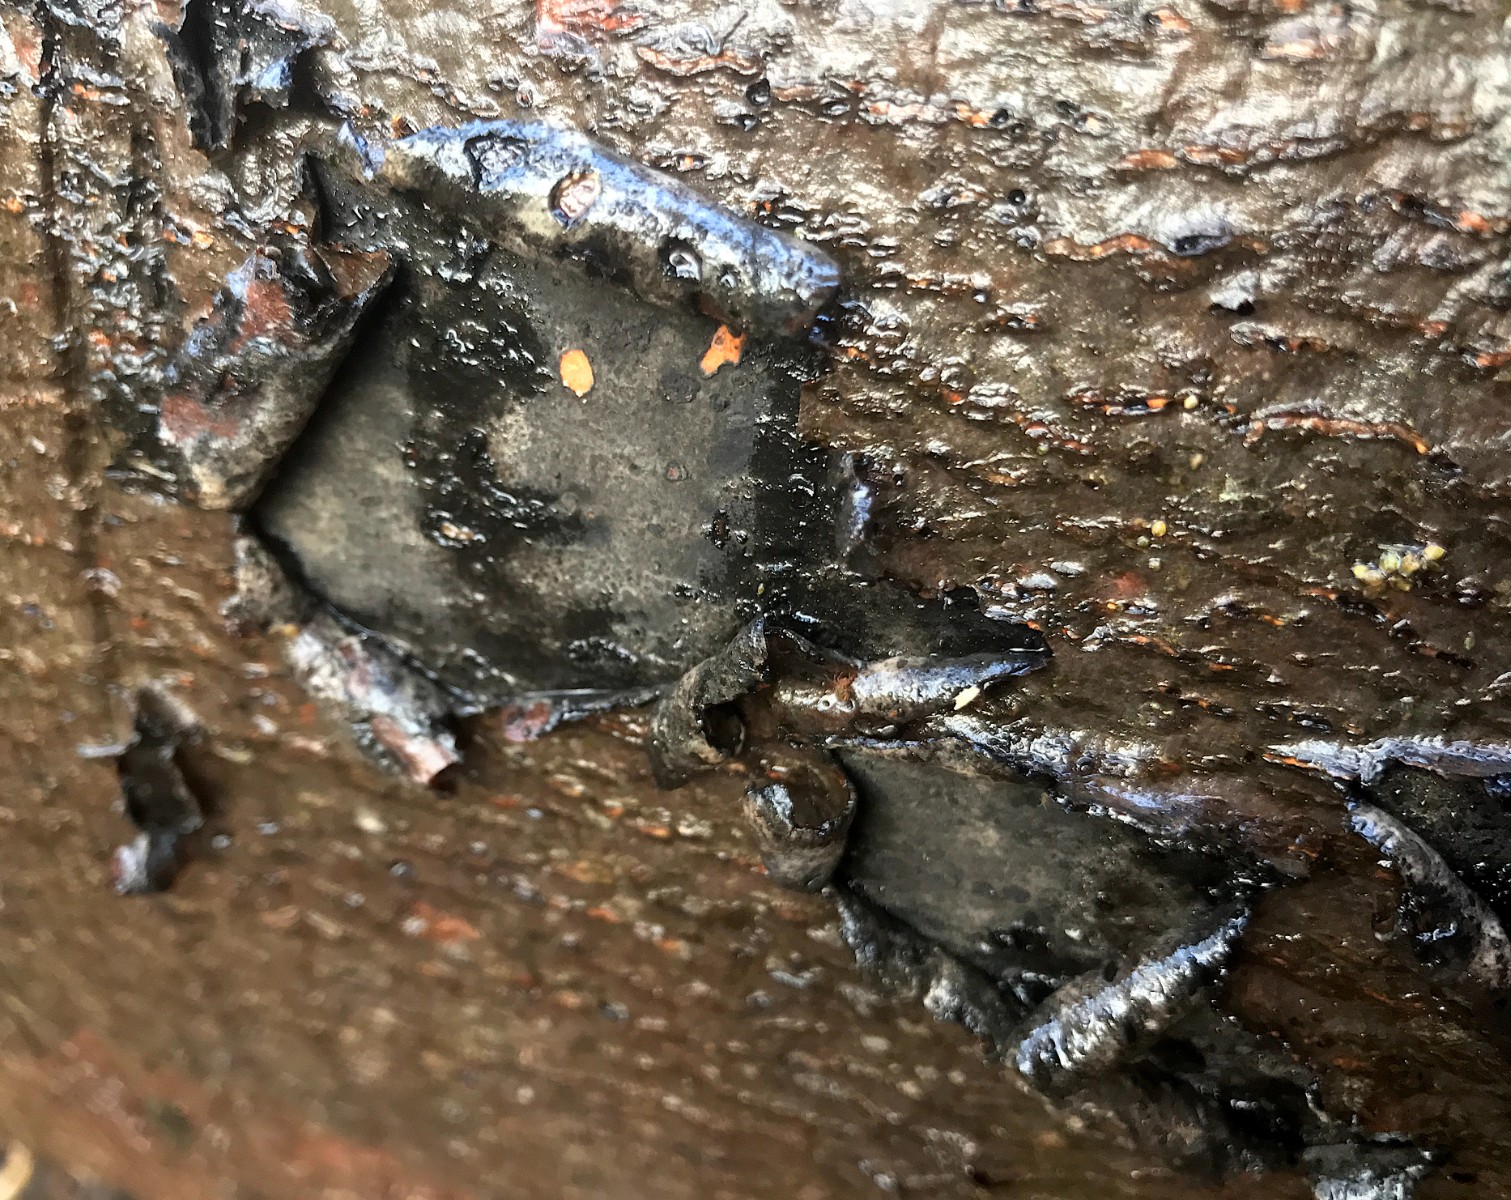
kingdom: Fungi
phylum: Ascomycota
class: Sordariomycetes
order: Xylariales
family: Graphostromataceae
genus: Biscogniauxia
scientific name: Biscogniauxia nummularia
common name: bøge-kulskive
